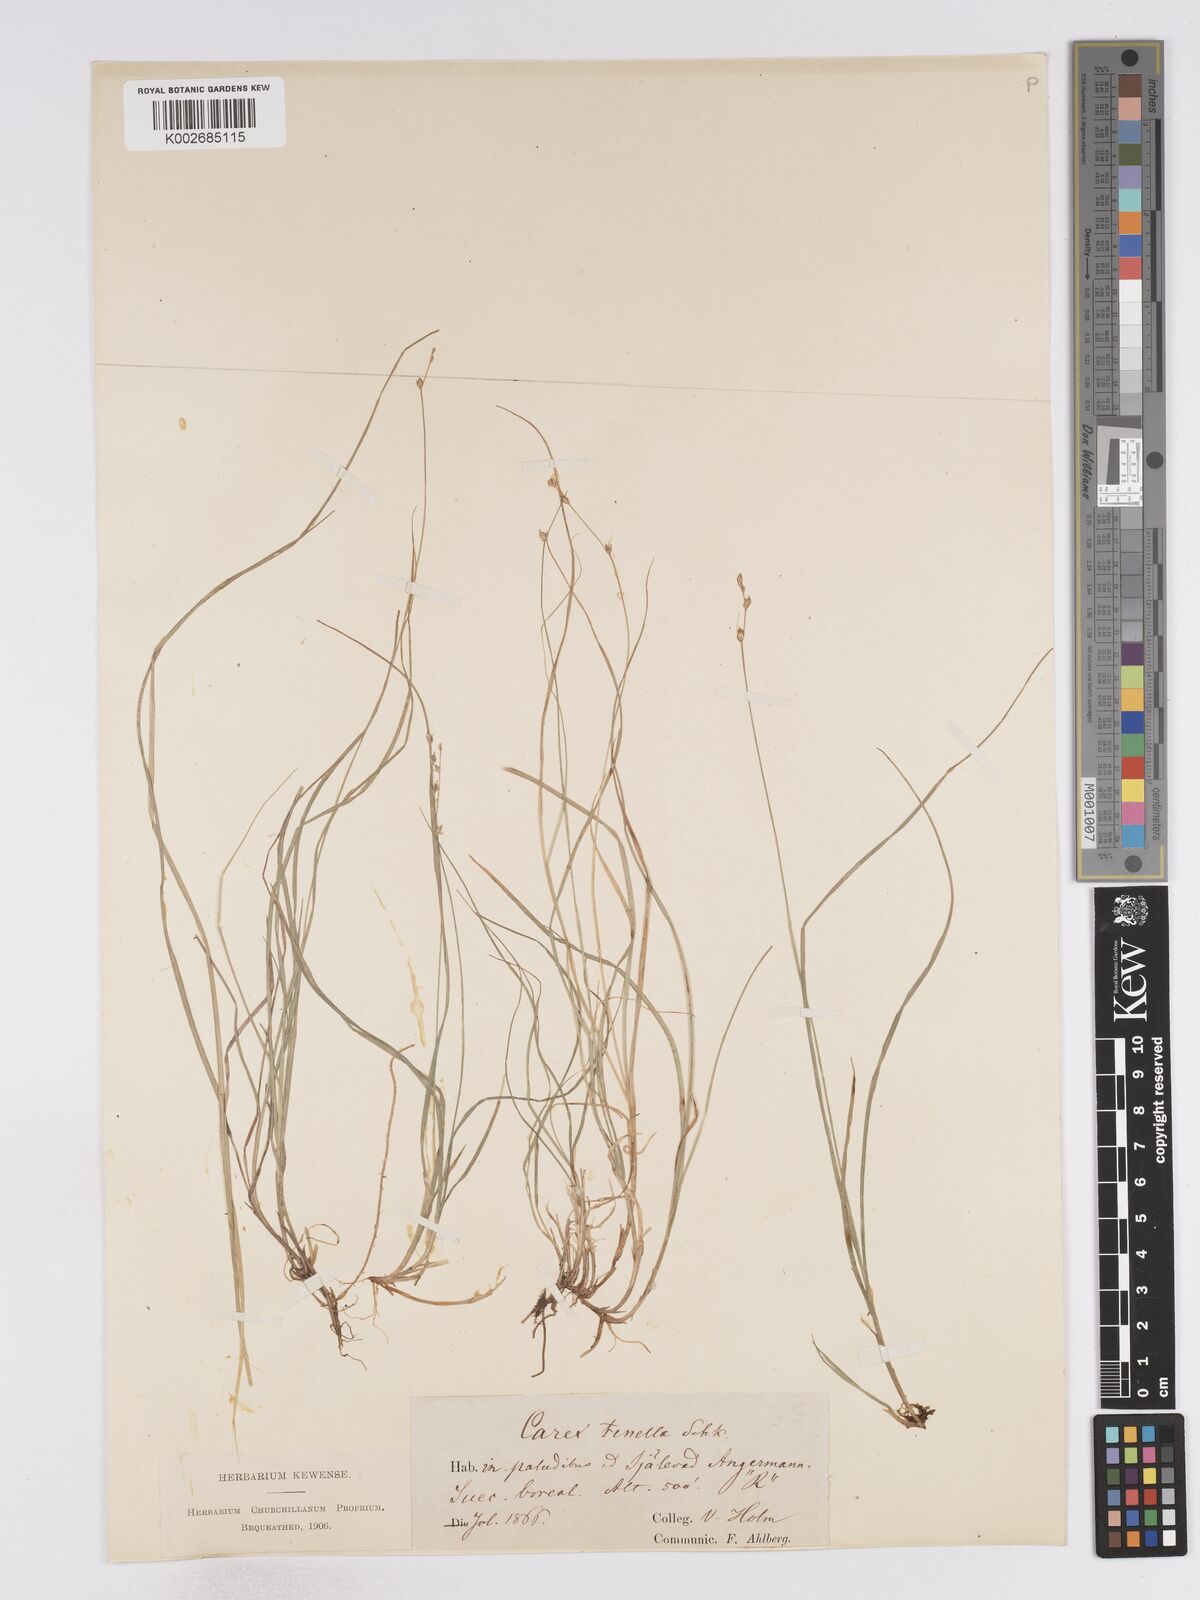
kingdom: Plantae
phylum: Tracheophyta
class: Liliopsida
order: Poales
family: Cyperaceae
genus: Carex
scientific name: Carex disperma
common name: Short-leaved sedge
